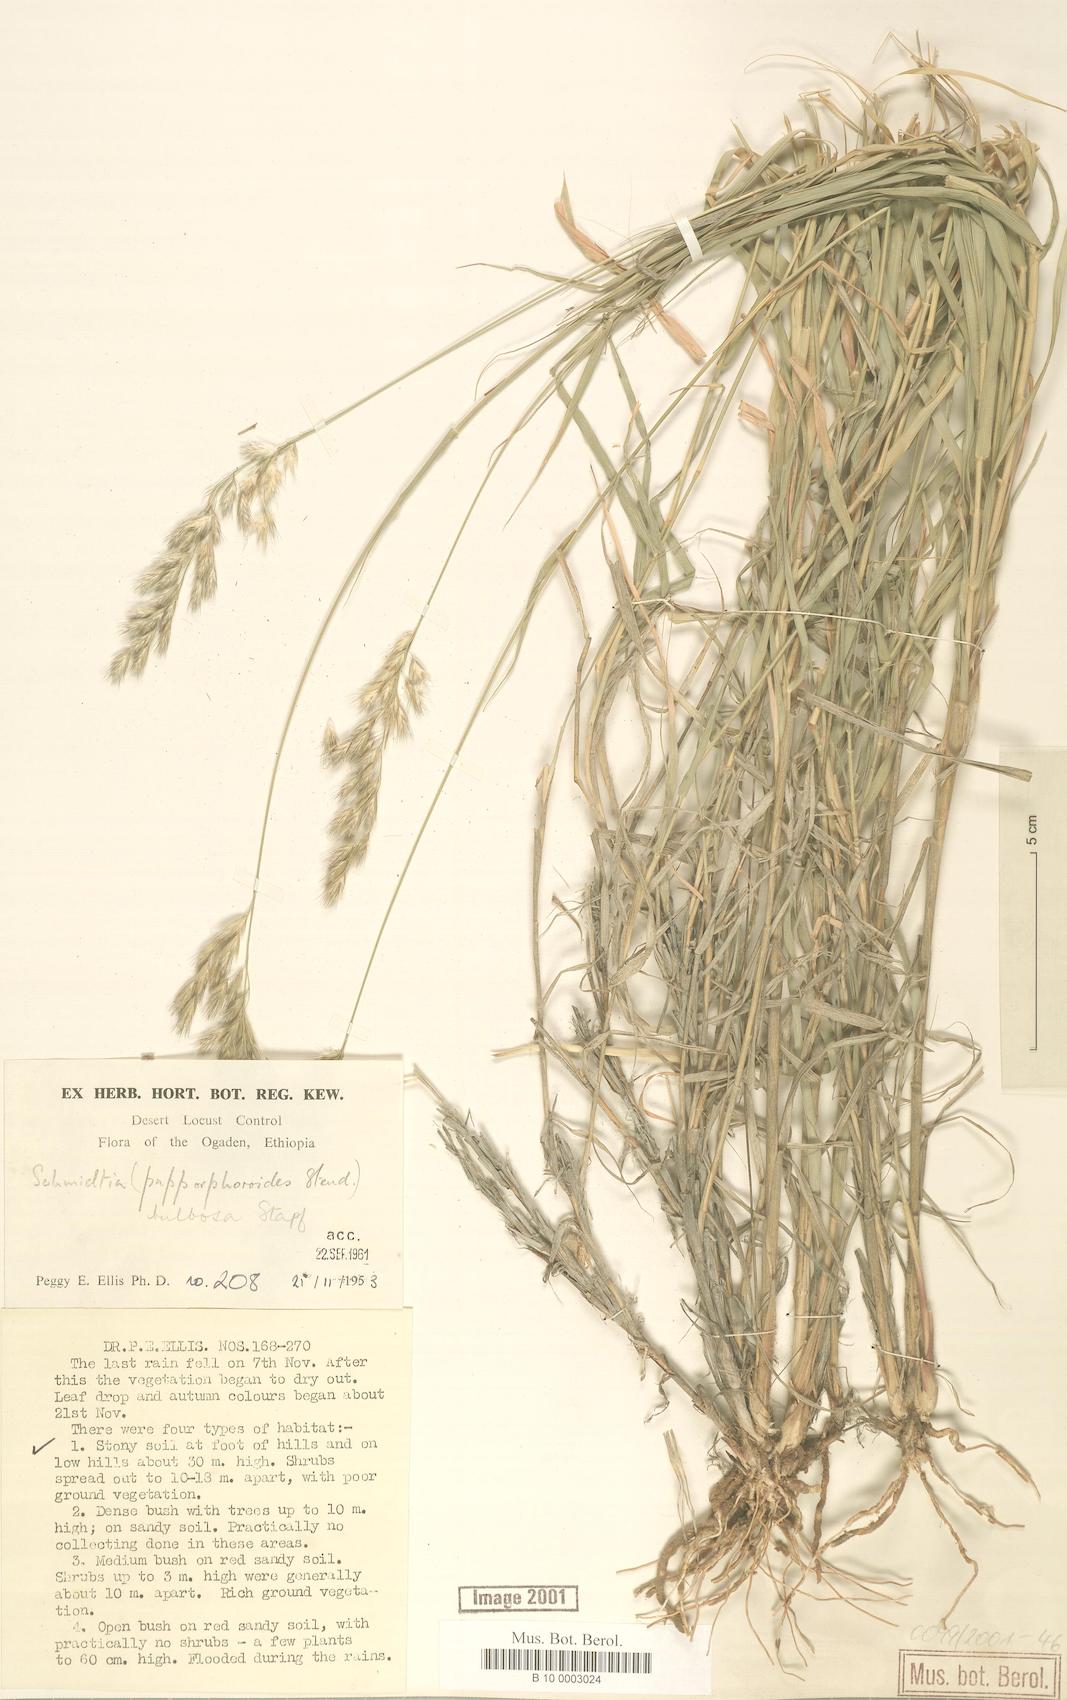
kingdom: Plantae
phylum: Tracheophyta
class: Liliopsida
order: Poales
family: Poaceae
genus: Schmidtia
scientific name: Schmidtia pappophoroides
